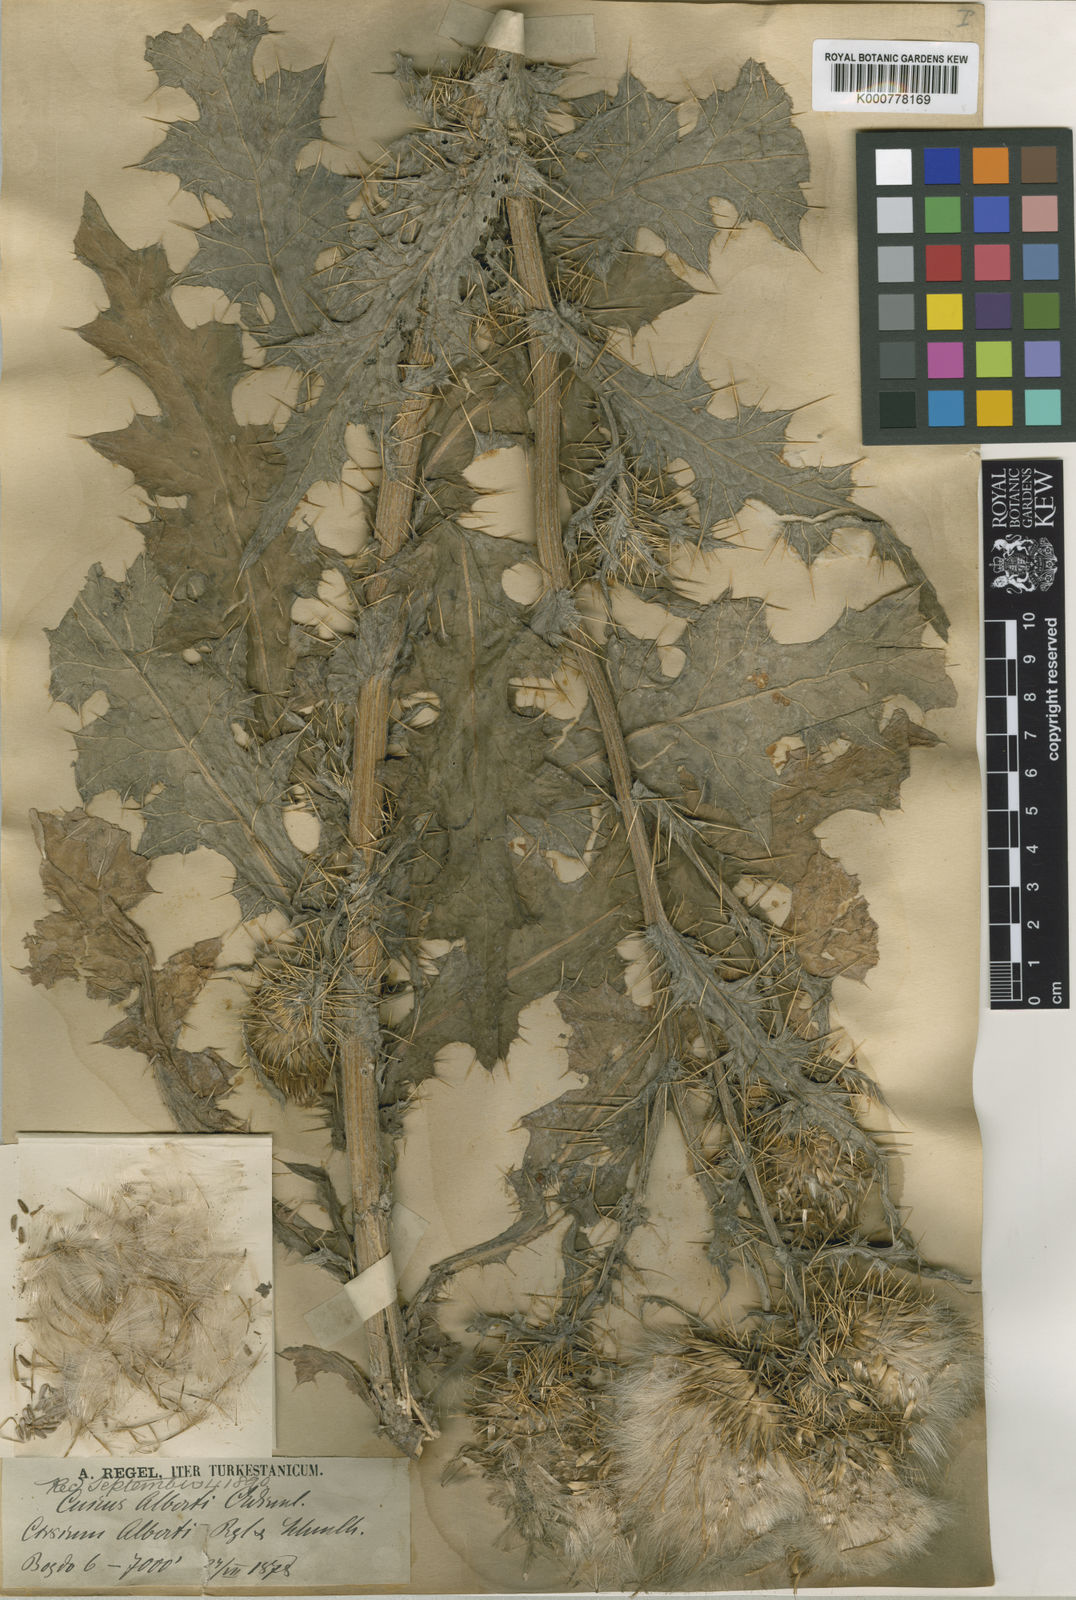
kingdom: Plantae
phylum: Tracheophyta
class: Magnoliopsida
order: Asterales
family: Asteraceae
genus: Cirsium
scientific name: Cirsium alberti
